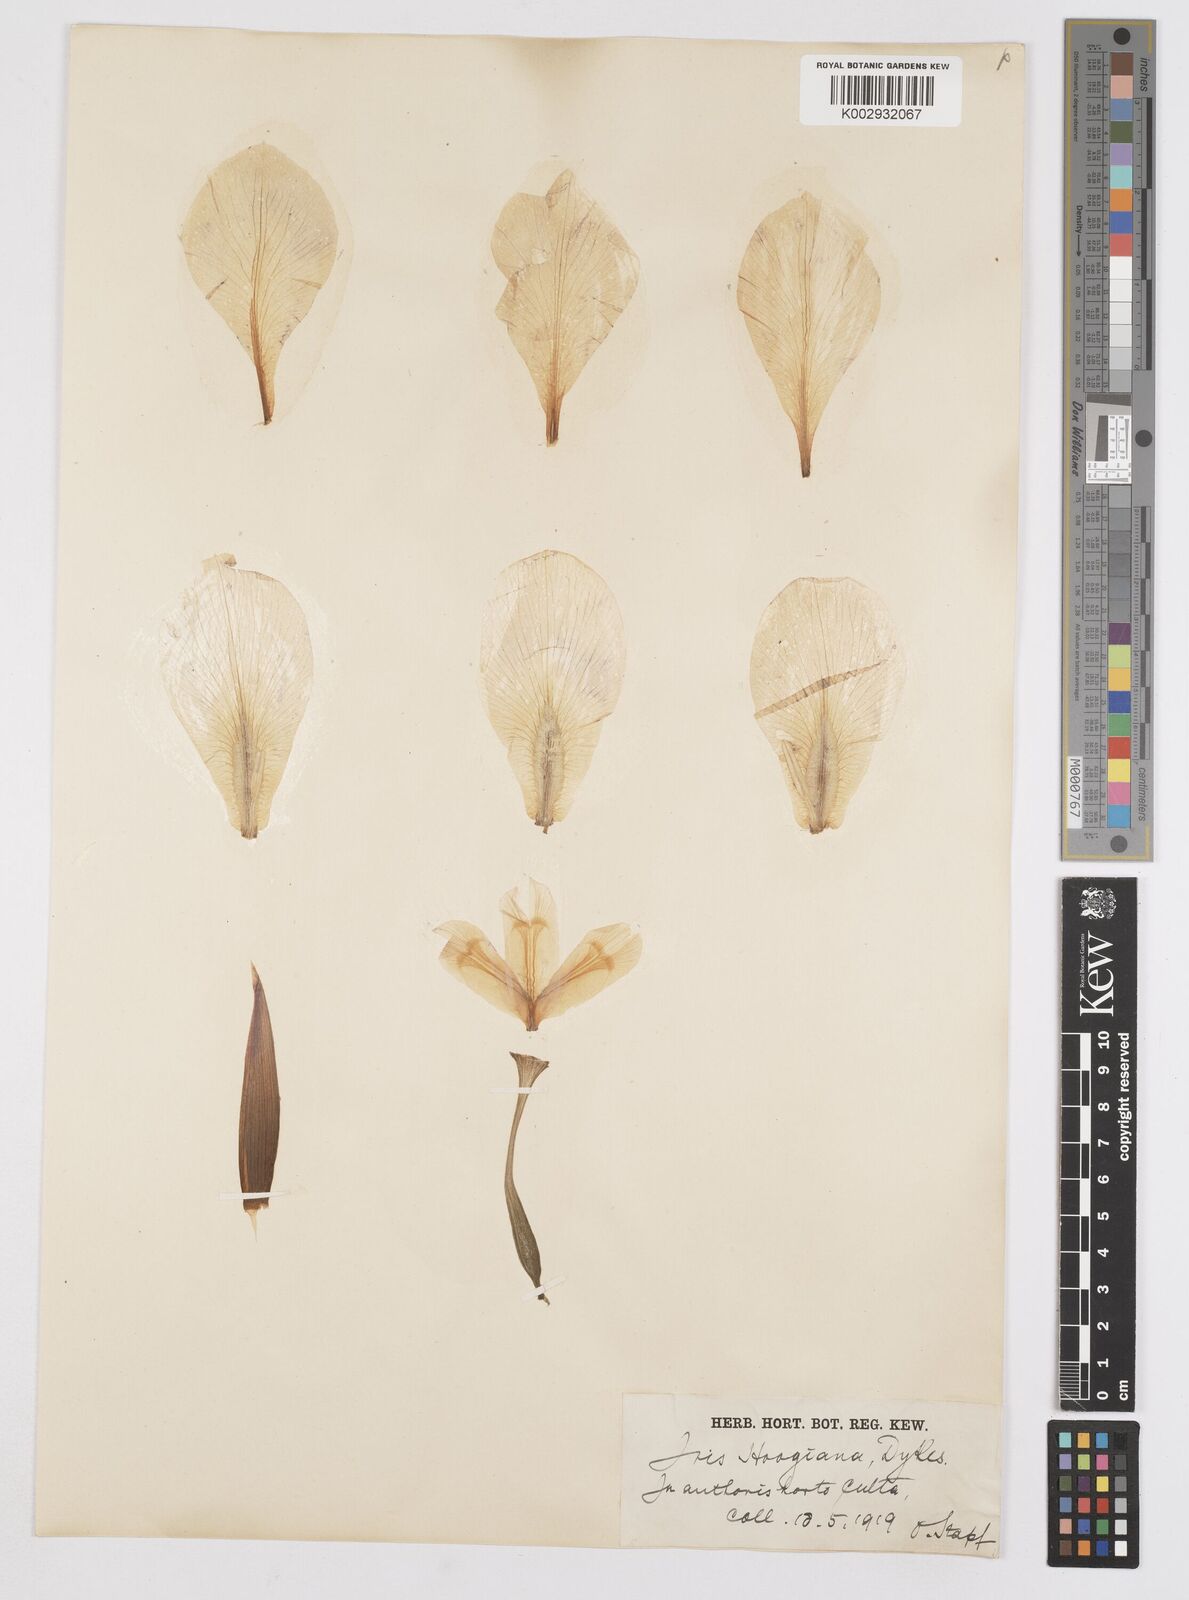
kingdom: Plantae
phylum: Tracheophyta
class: Liliopsida
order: Asparagales
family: Iridaceae
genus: Iris
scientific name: Iris hoogiana
